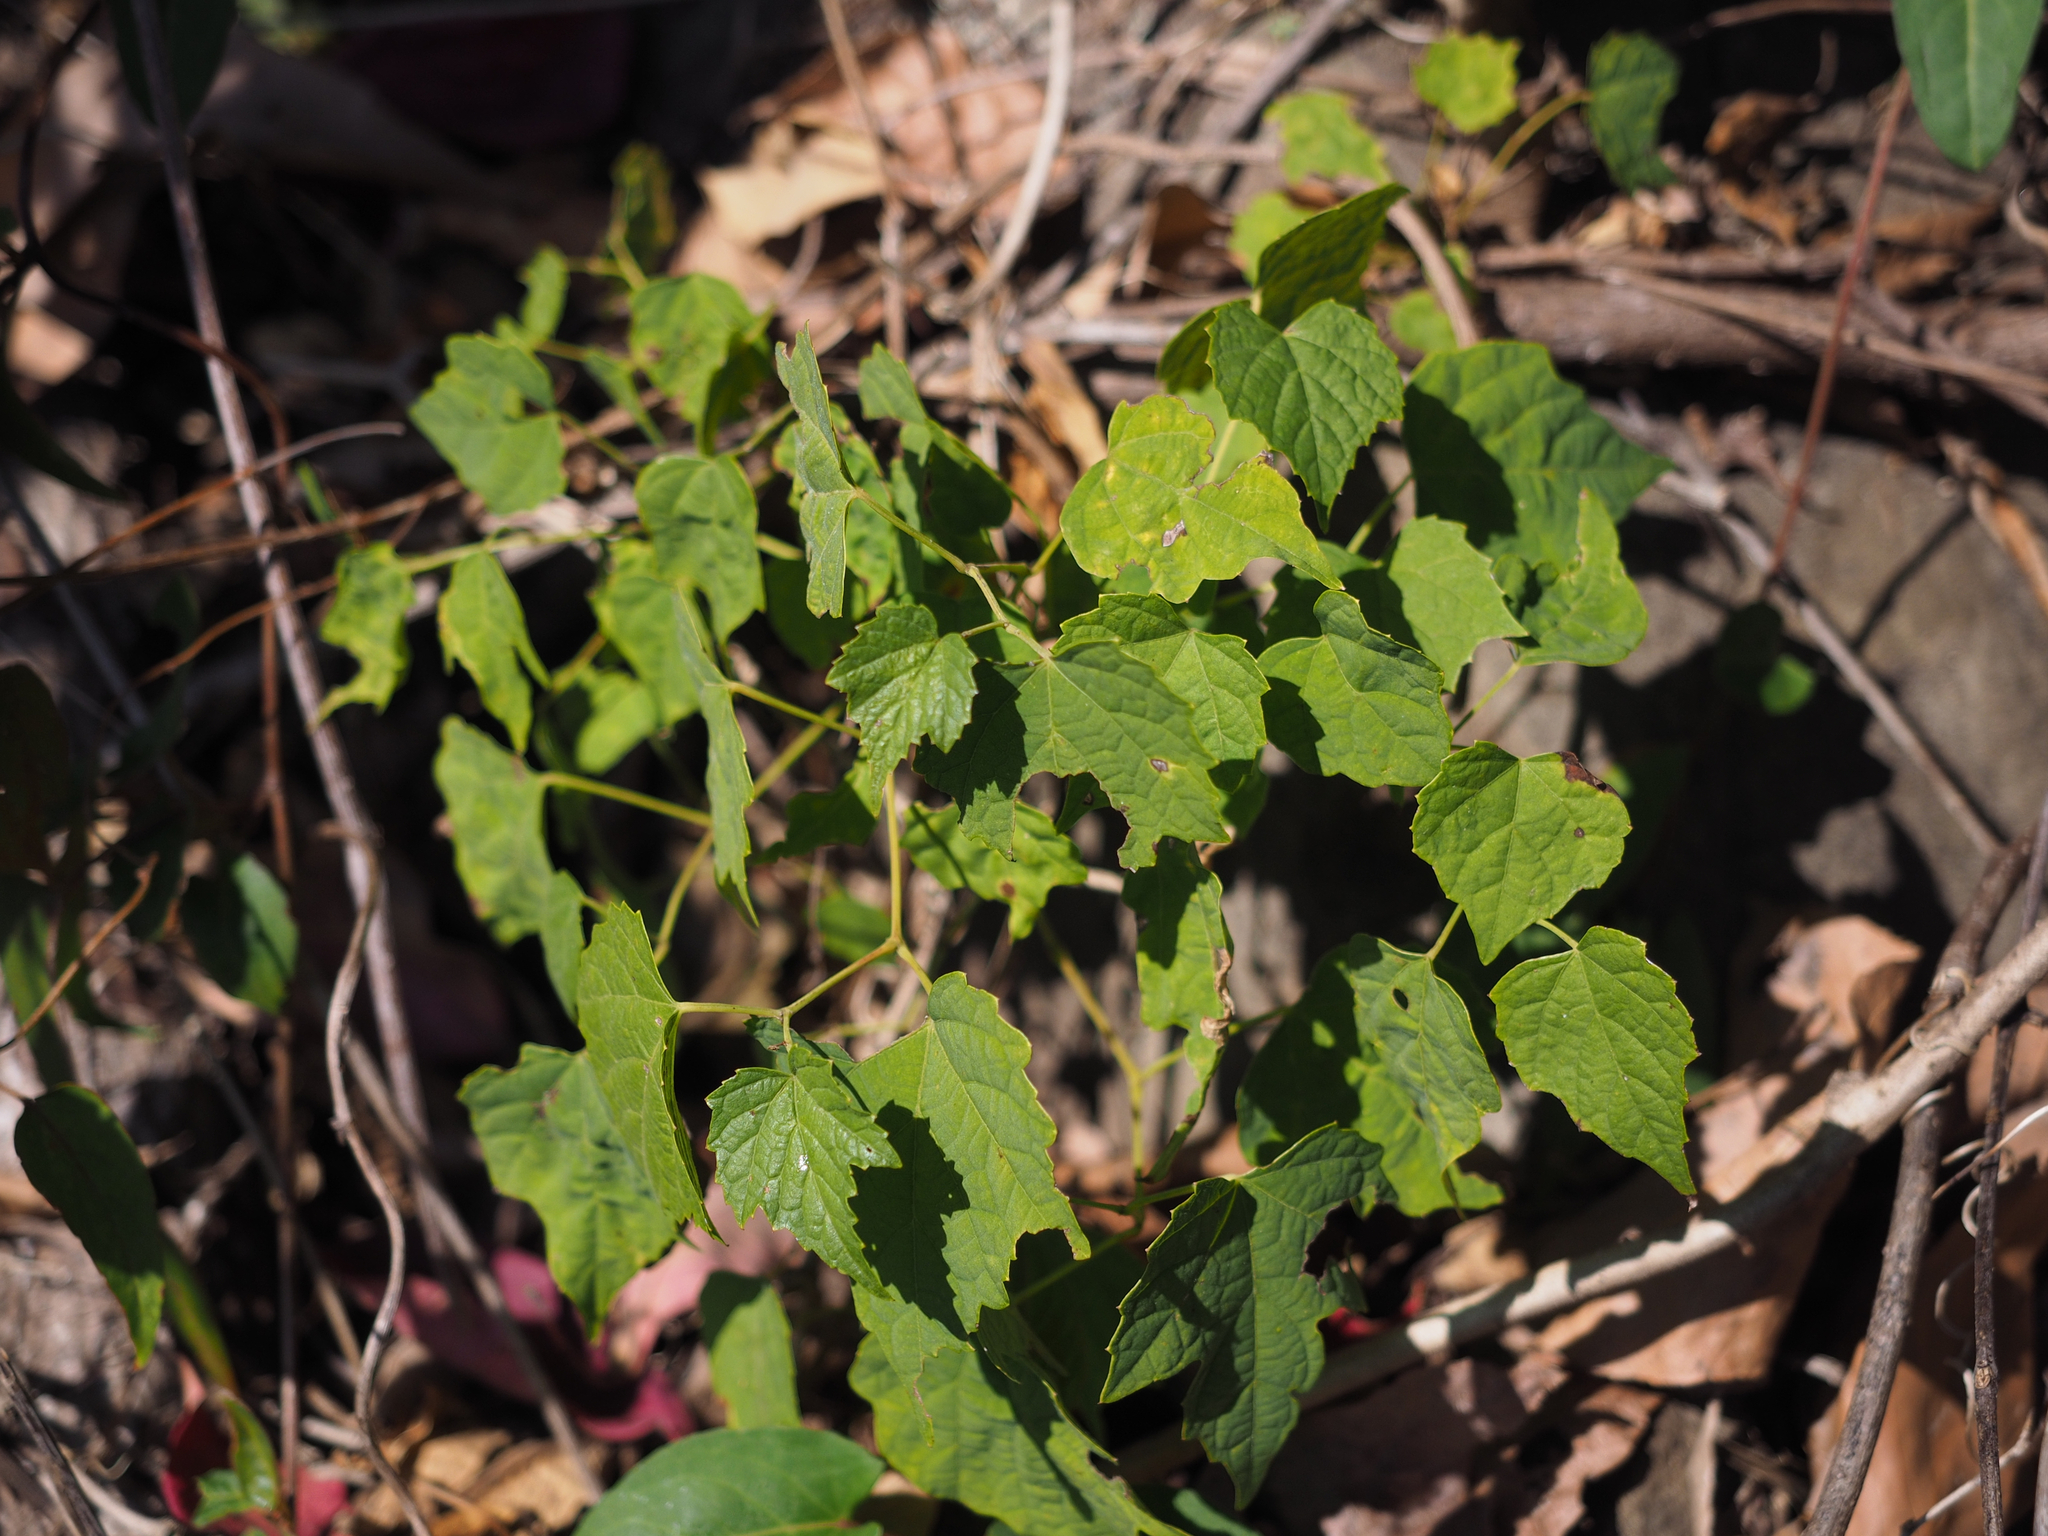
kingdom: Plantae
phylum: Tracheophyta
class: Magnoliopsida
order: Vitales
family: Vitaceae
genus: Ampelopsis
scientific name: Ampelopsis glandulosa
